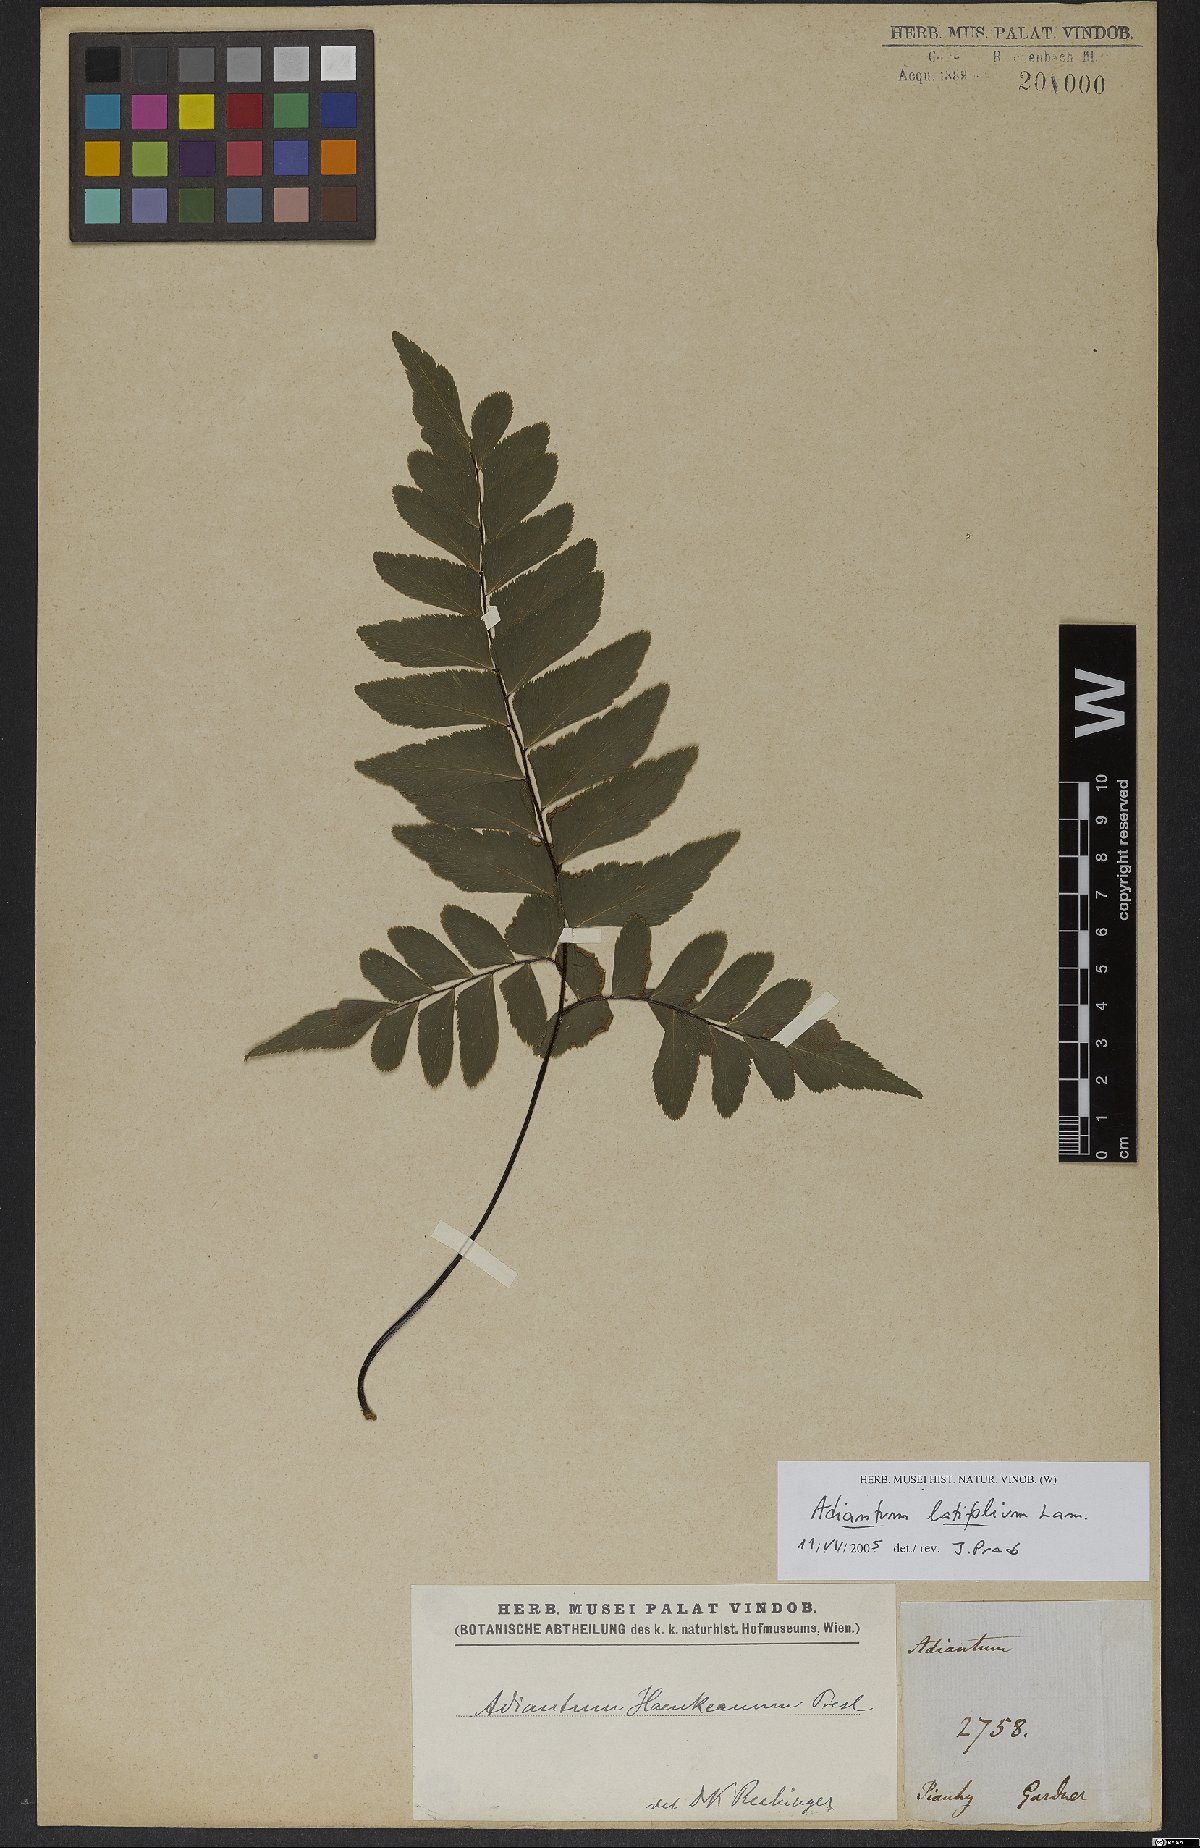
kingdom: Plantae
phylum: Tracheophyta
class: Polypodiopsida
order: Polypodiales
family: Pteridaceae
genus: Adiantum
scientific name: Adiantum latifolium
